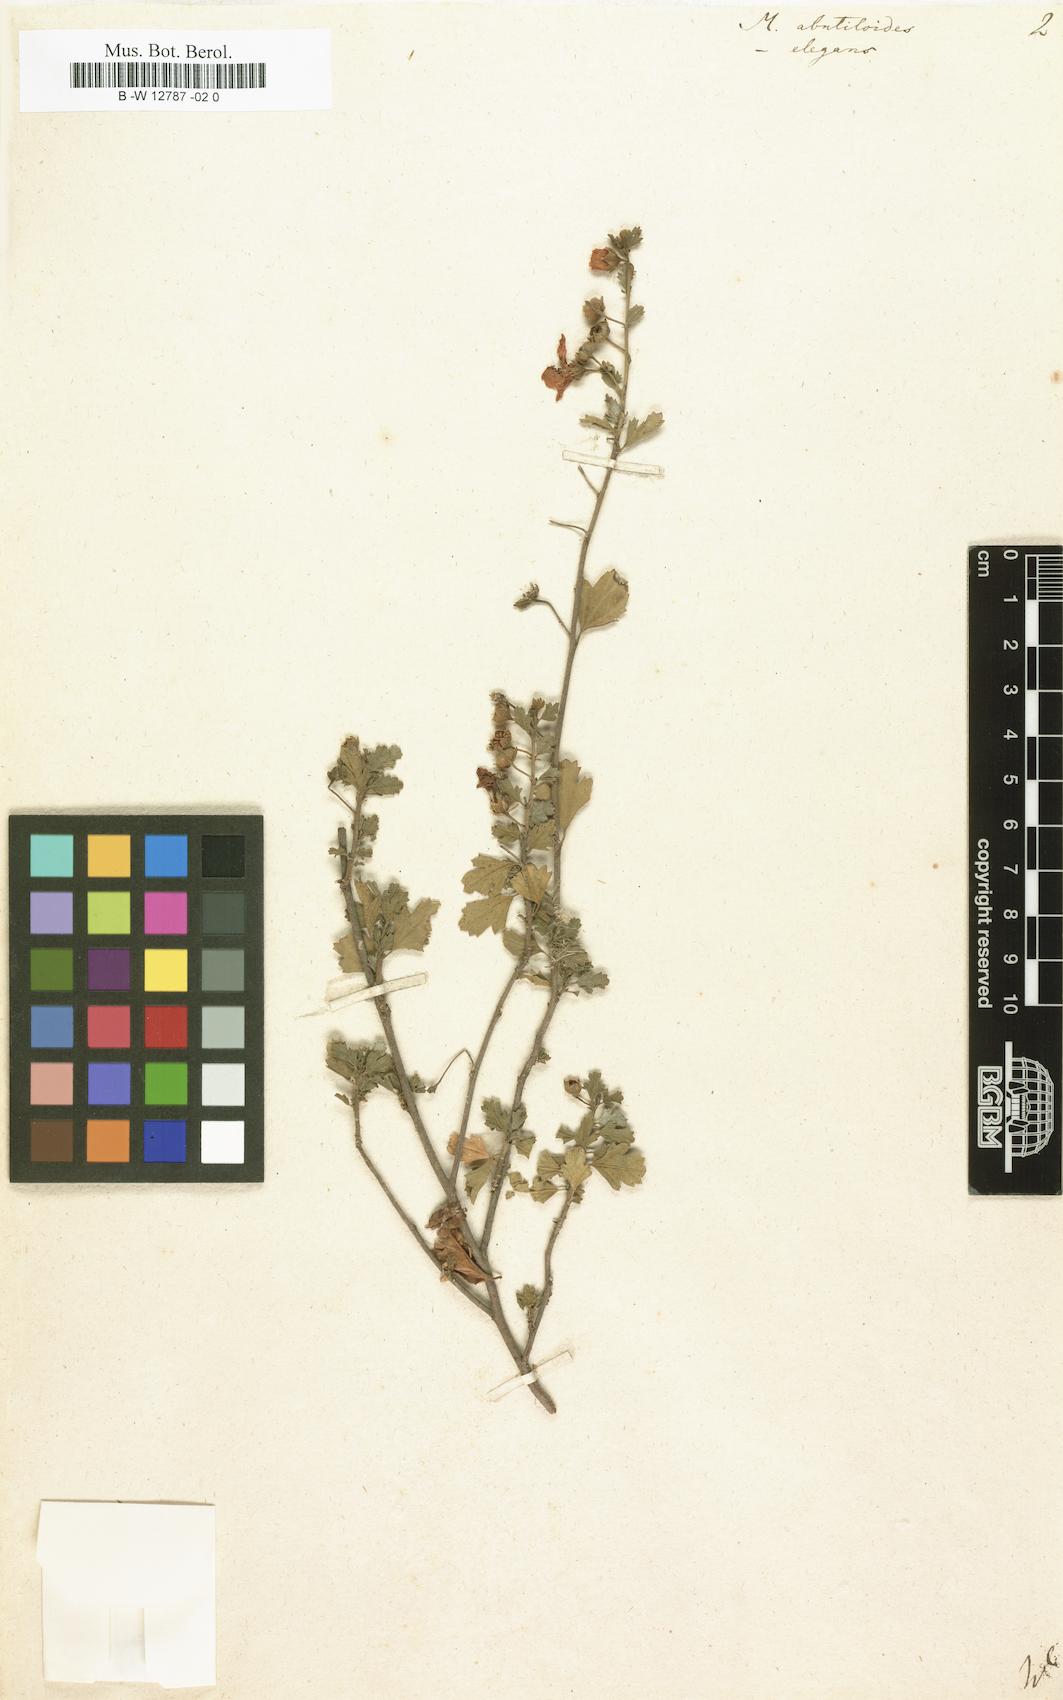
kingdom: Plantae
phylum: Tracheophyta
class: Magnoliopsida
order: Malvales
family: Malvaceae
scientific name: Malvaceae
